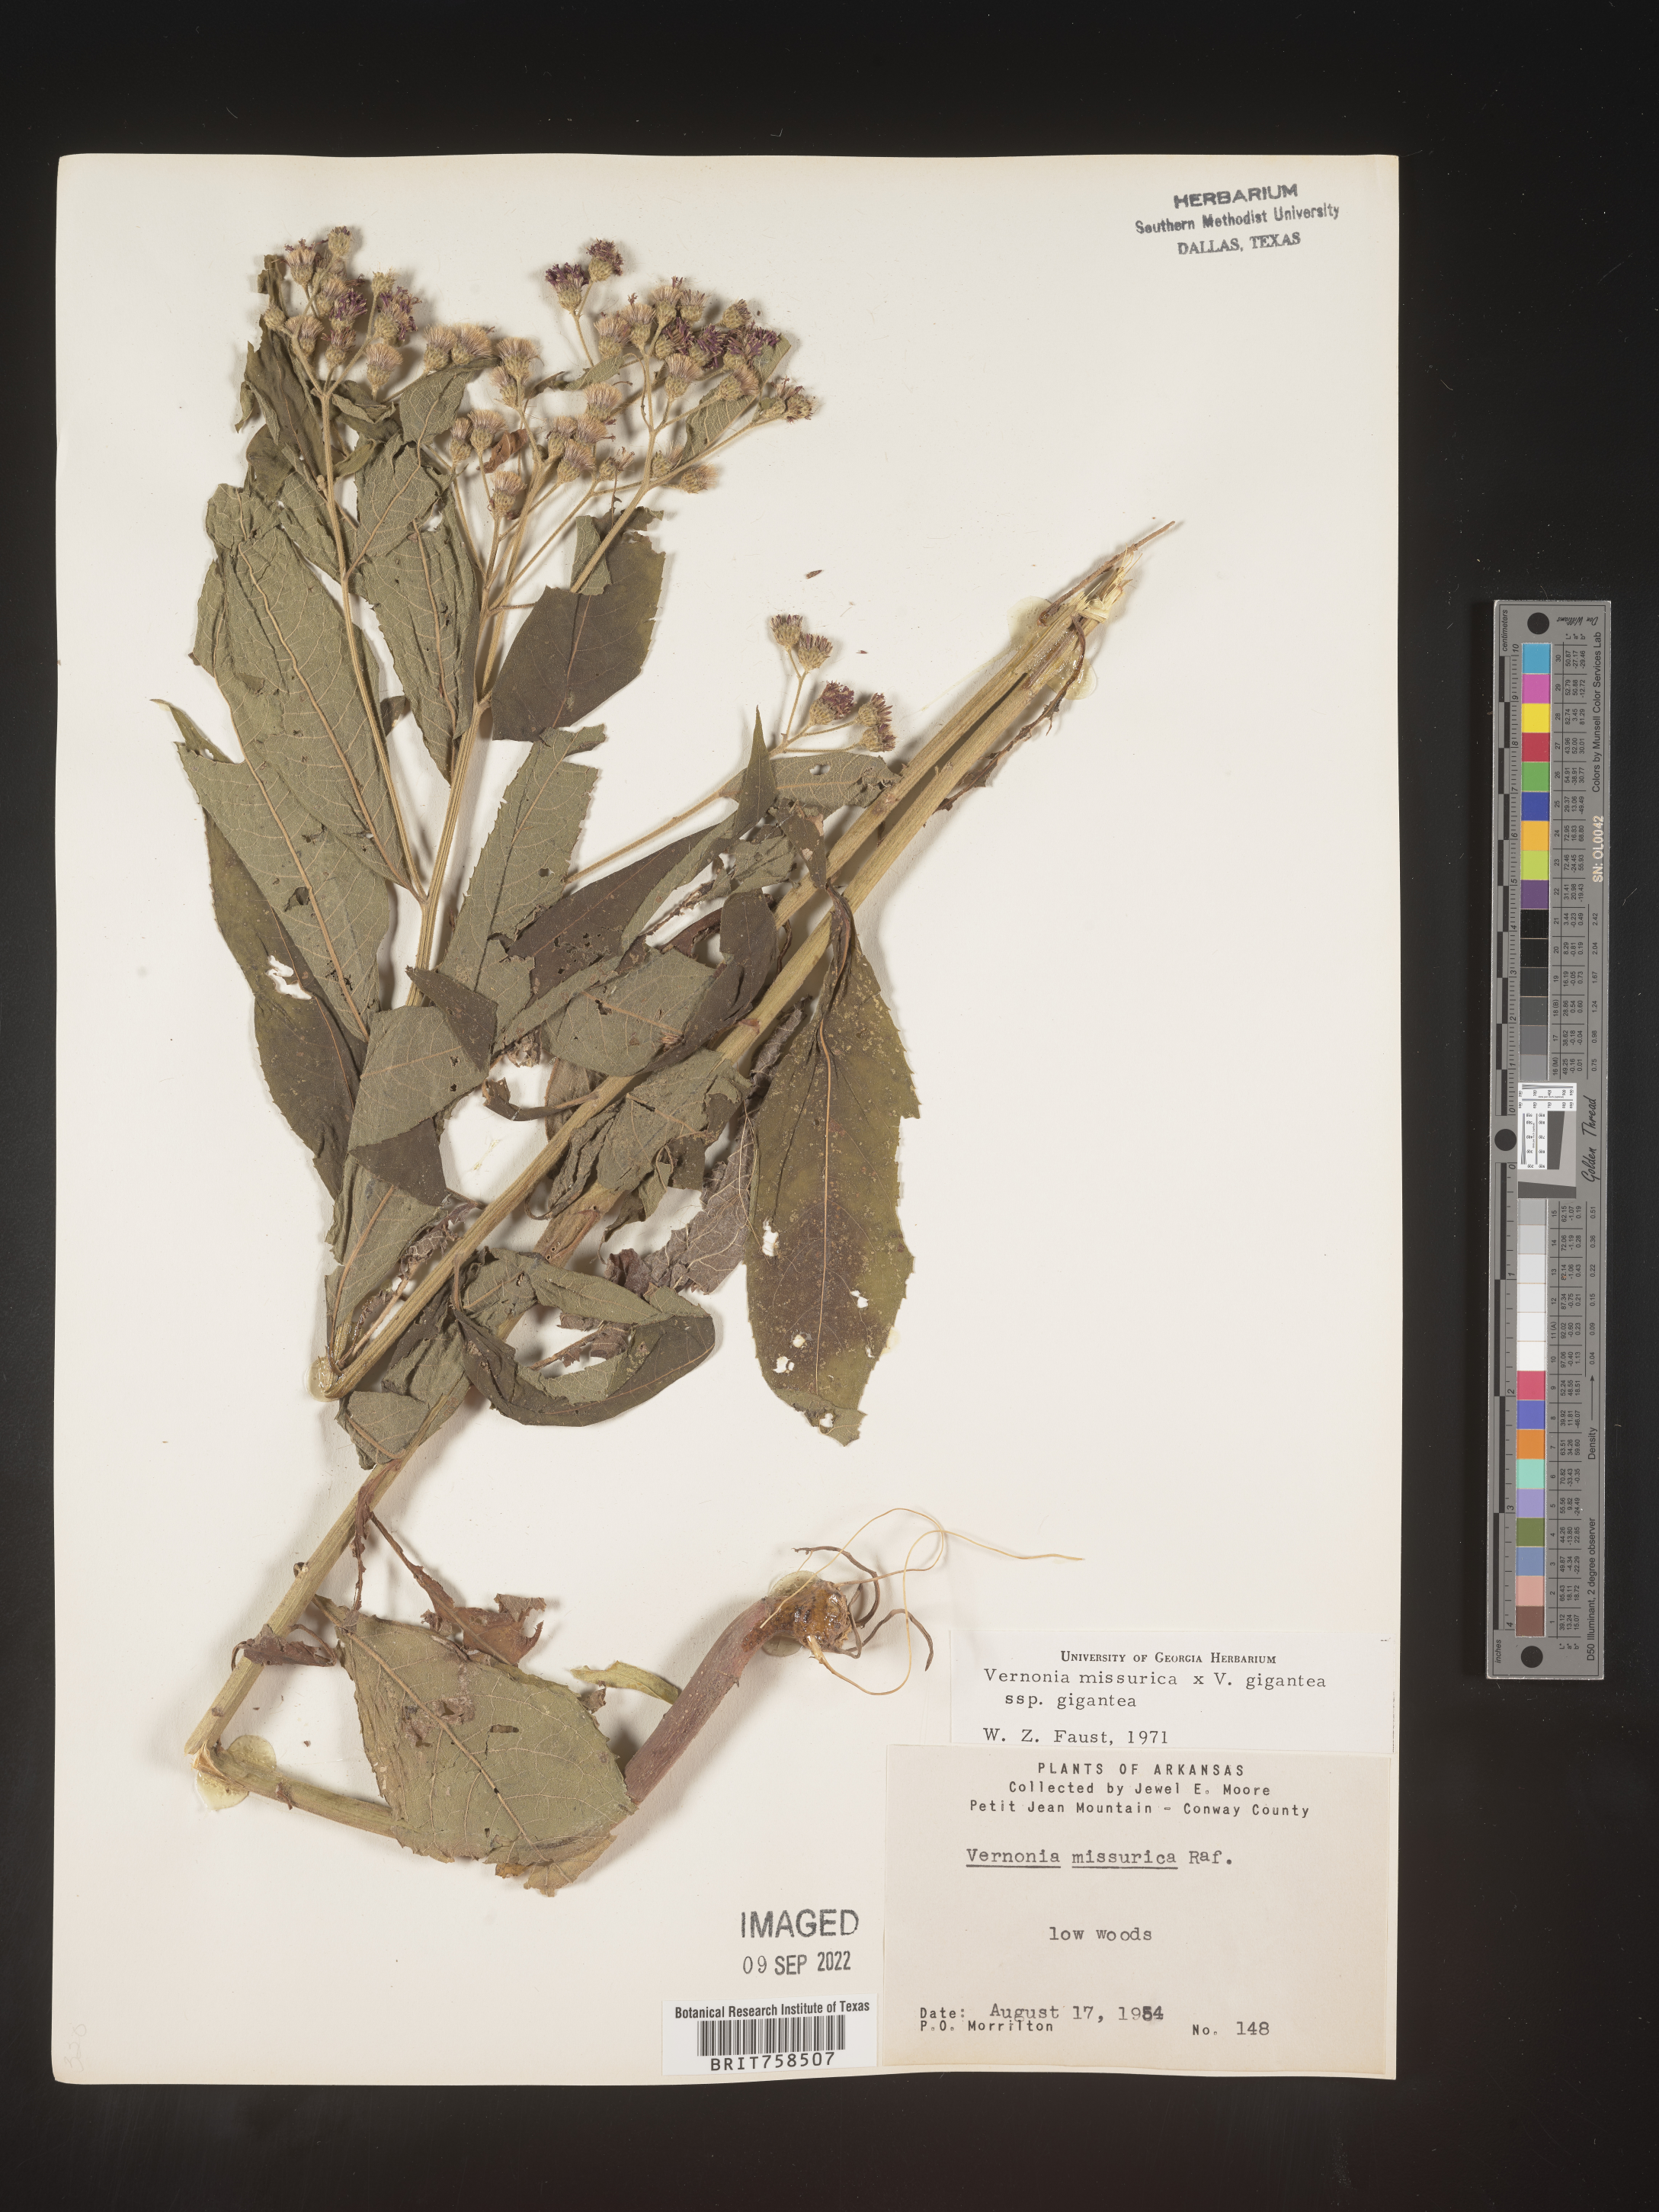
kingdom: Plantae
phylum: Tracheophyta
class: Magnoliopsida
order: Asterales
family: Asteraceae
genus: Vernonia
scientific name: Vernonia missurica
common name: Missouri ironweed
